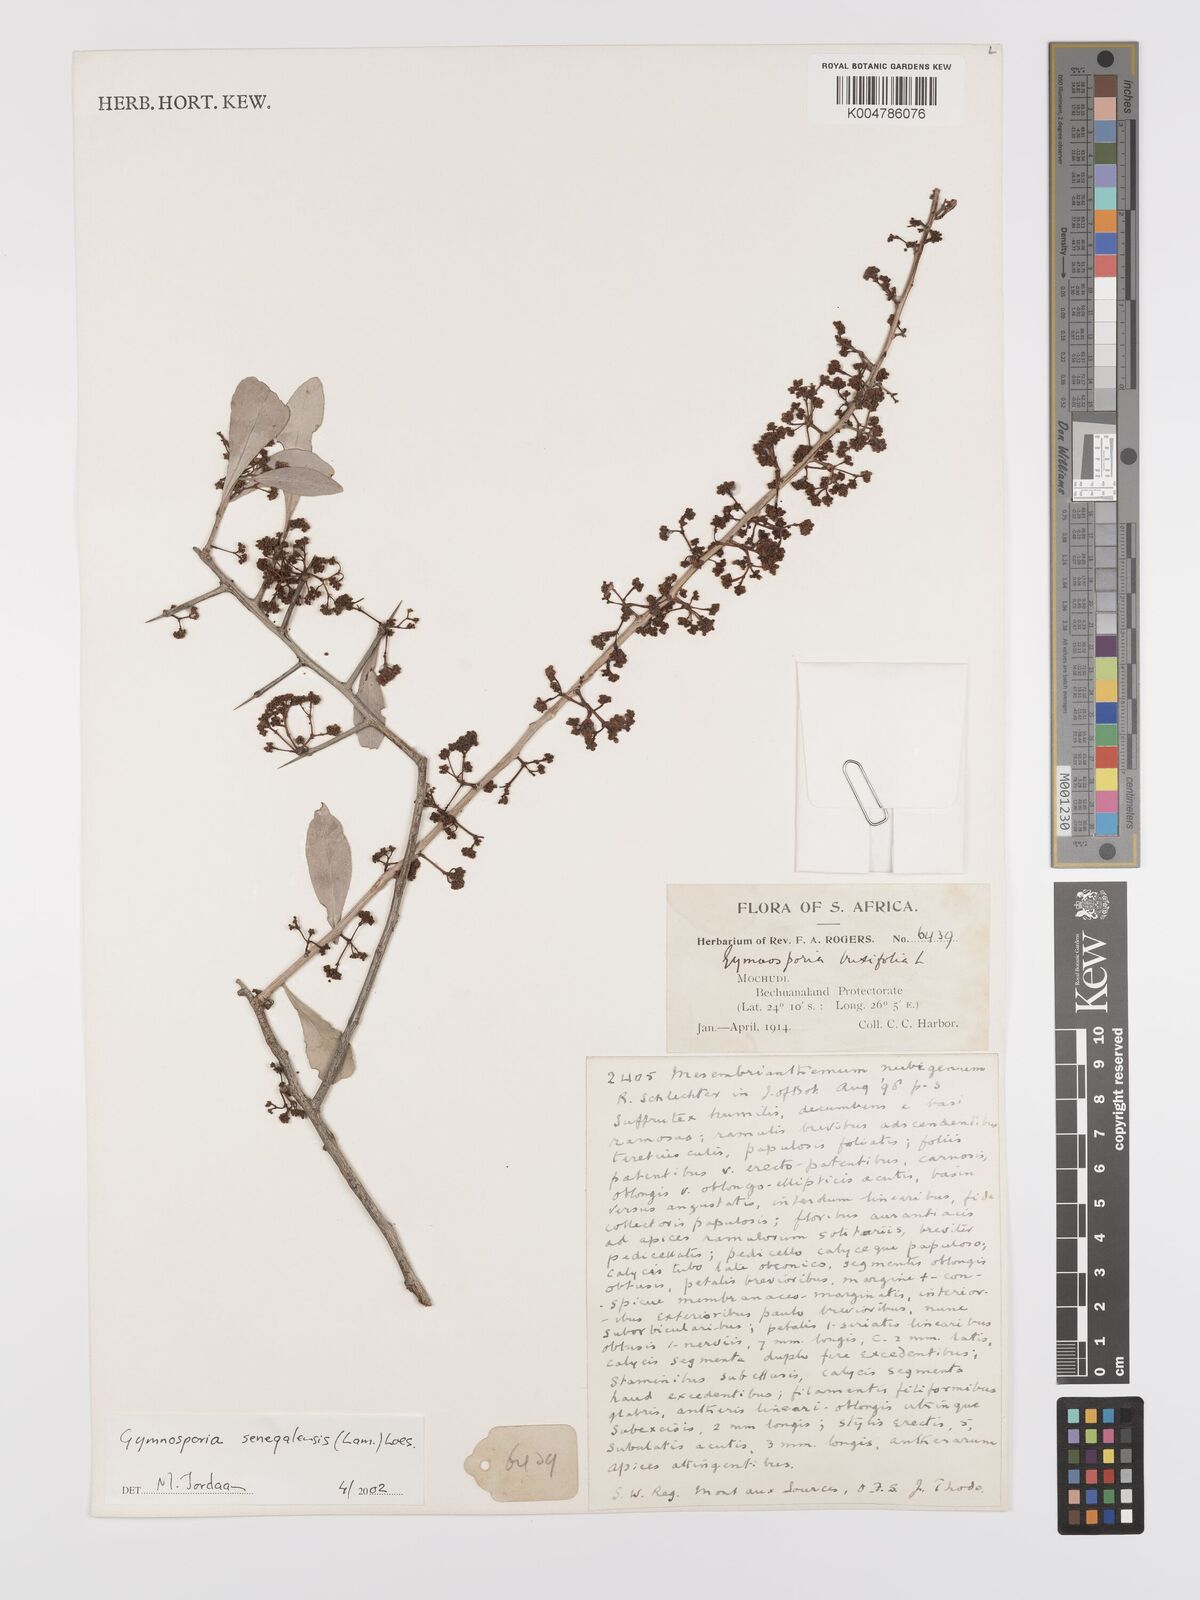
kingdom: Plantae
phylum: Tracheophyta
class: Magnoliopsida
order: Celastrales
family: Celastraceae
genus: Gymnosporia
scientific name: Gymnosporia senegalensis
